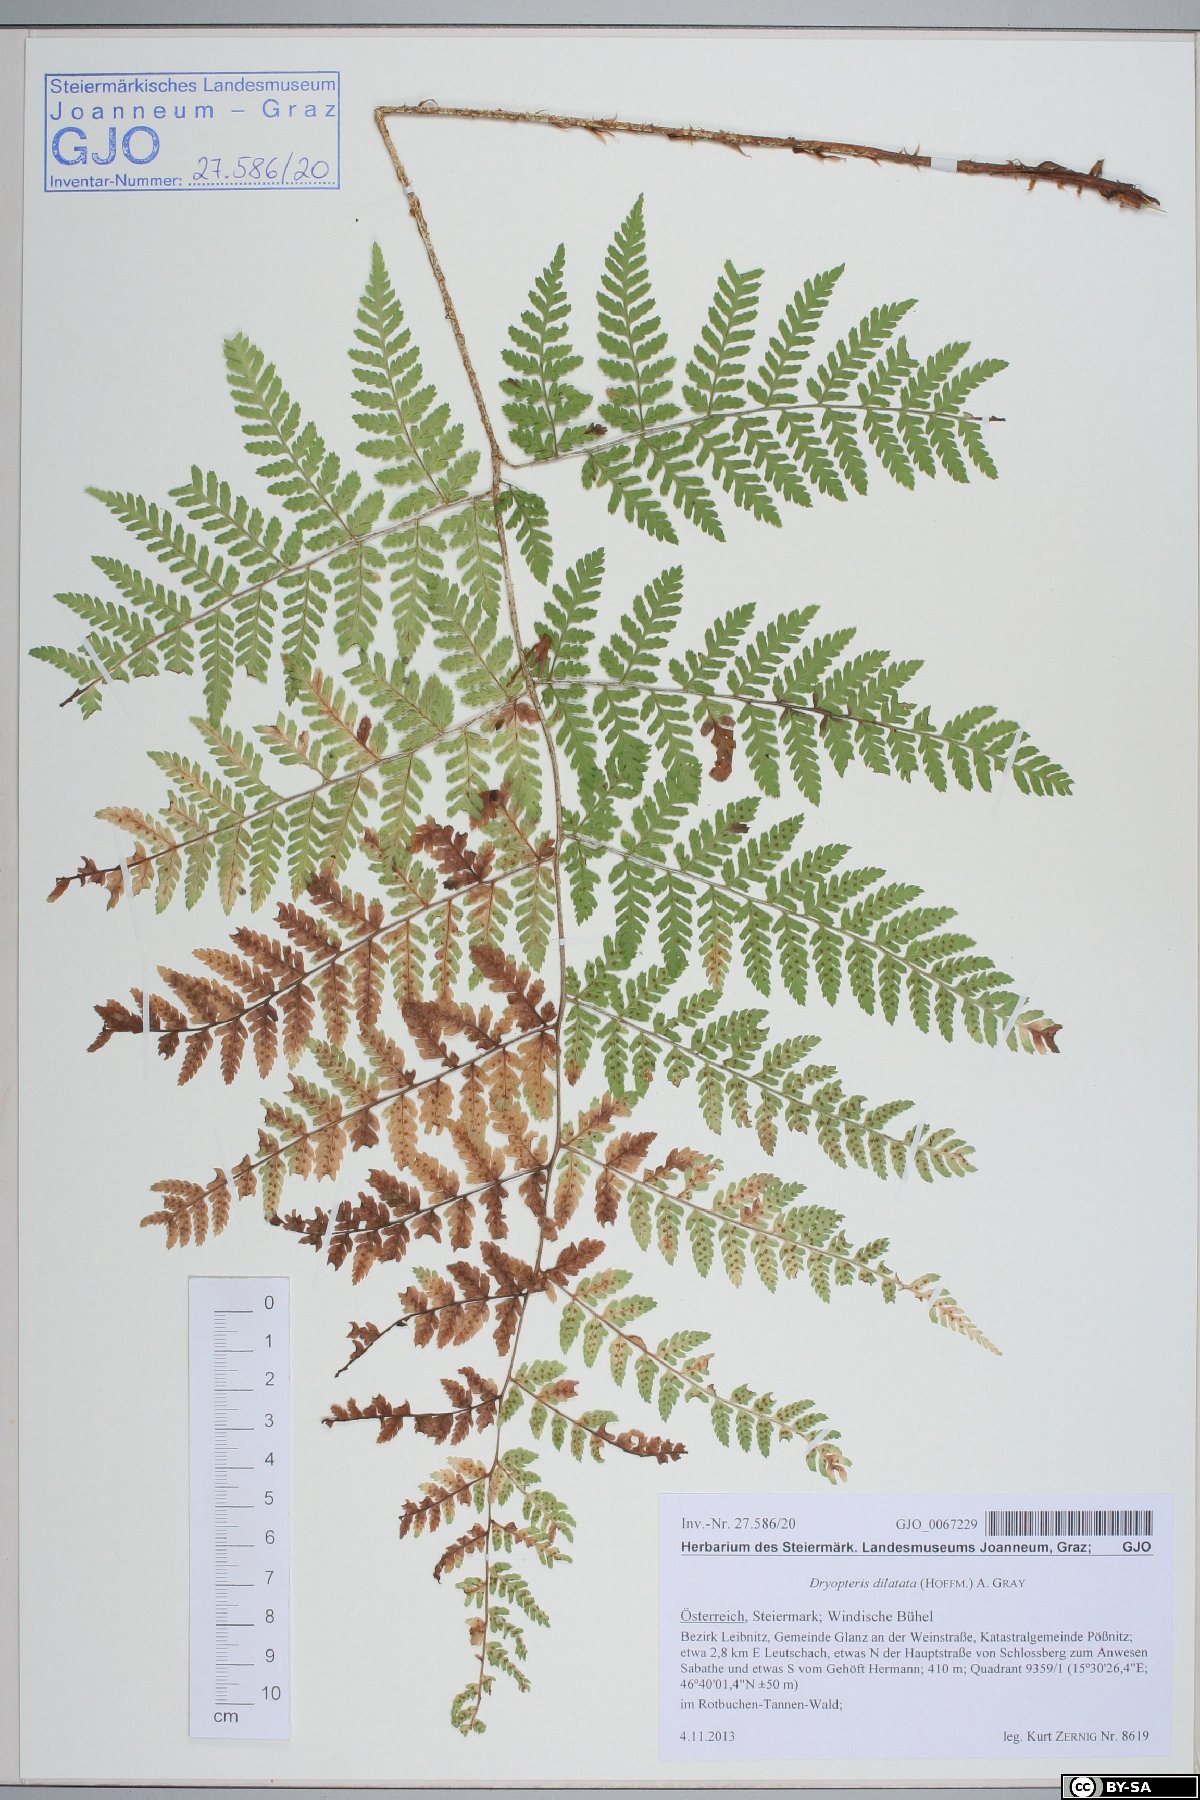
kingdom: Plantae
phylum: Tracheophyta
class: Polypodiopsida
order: Polypodiales
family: Dryopteridaceae
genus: Dryopteris
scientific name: Dryopteris dilatata
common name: Broad buckler-fern
